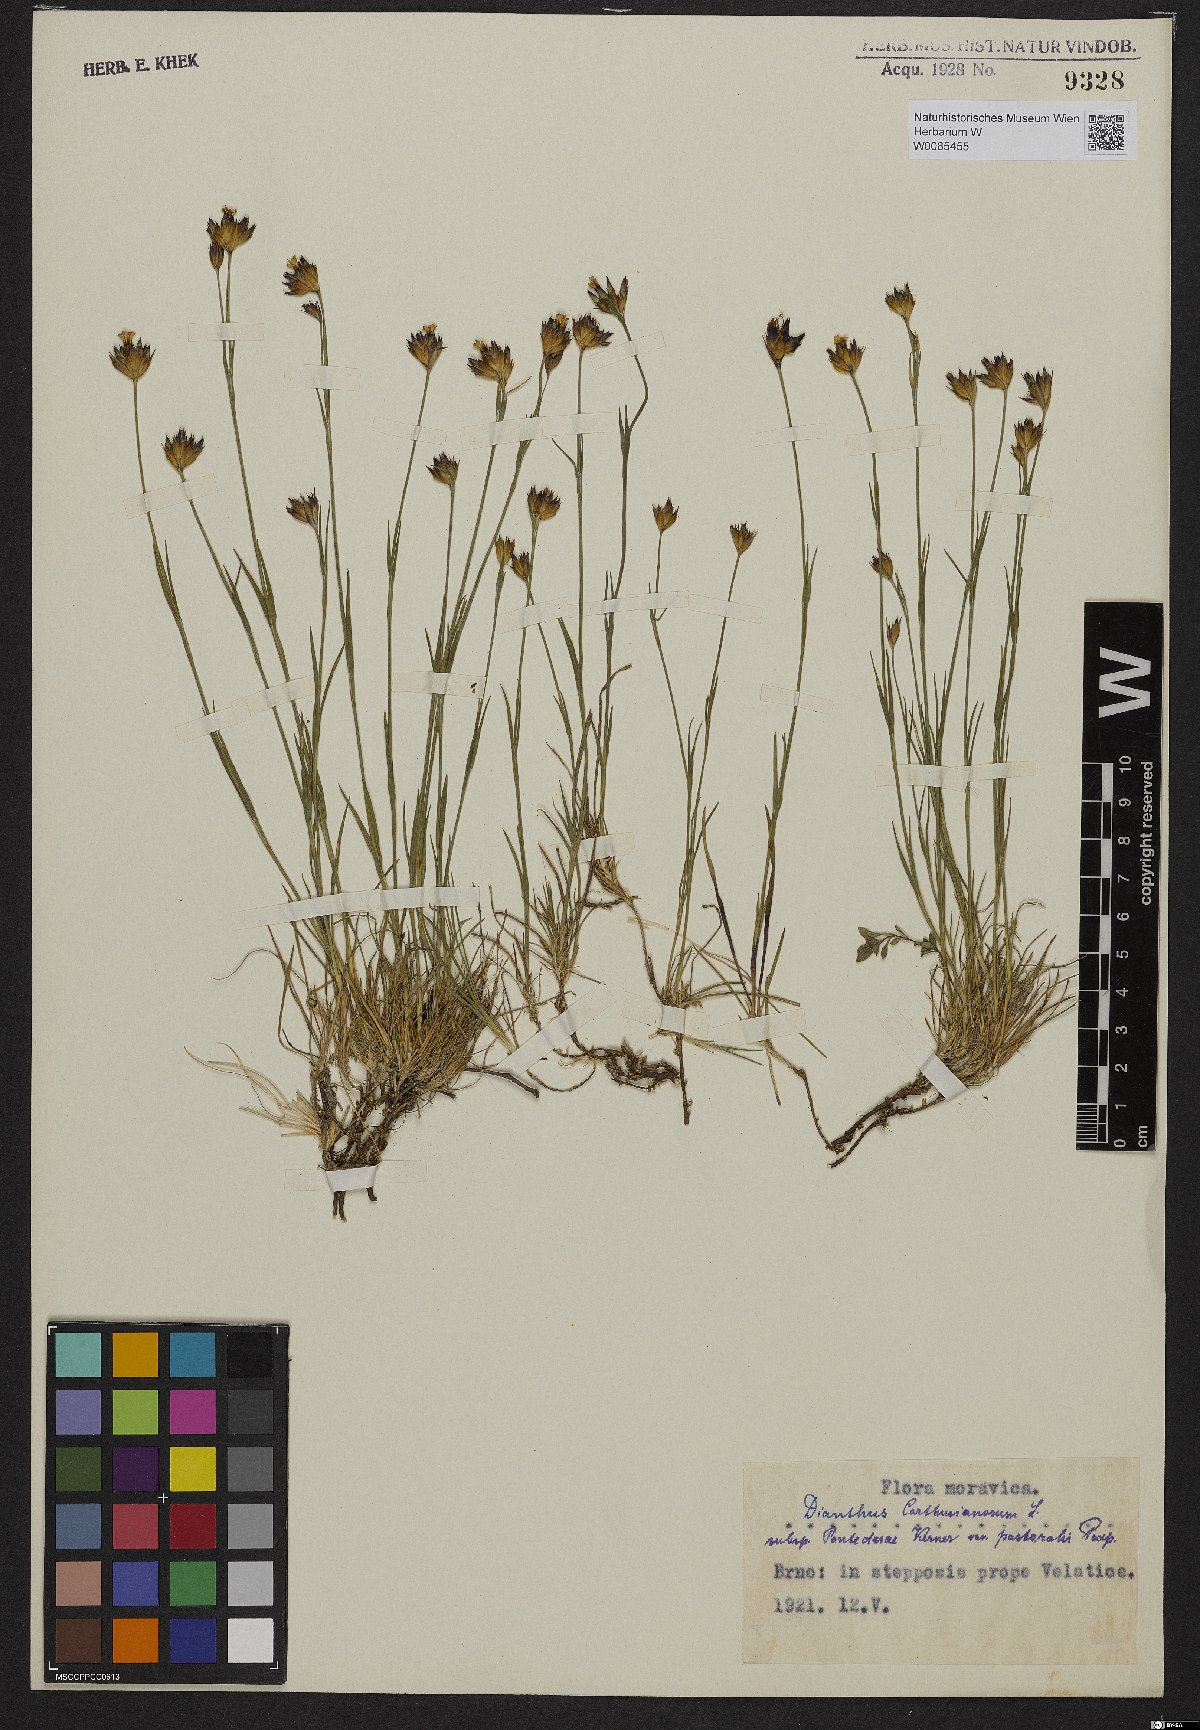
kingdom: Plantae
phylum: Tracheophyta
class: Magnoliopsida
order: Caryophyllales
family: Caryophyllaceae
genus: Dianthus
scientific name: Dianthus pontederae
